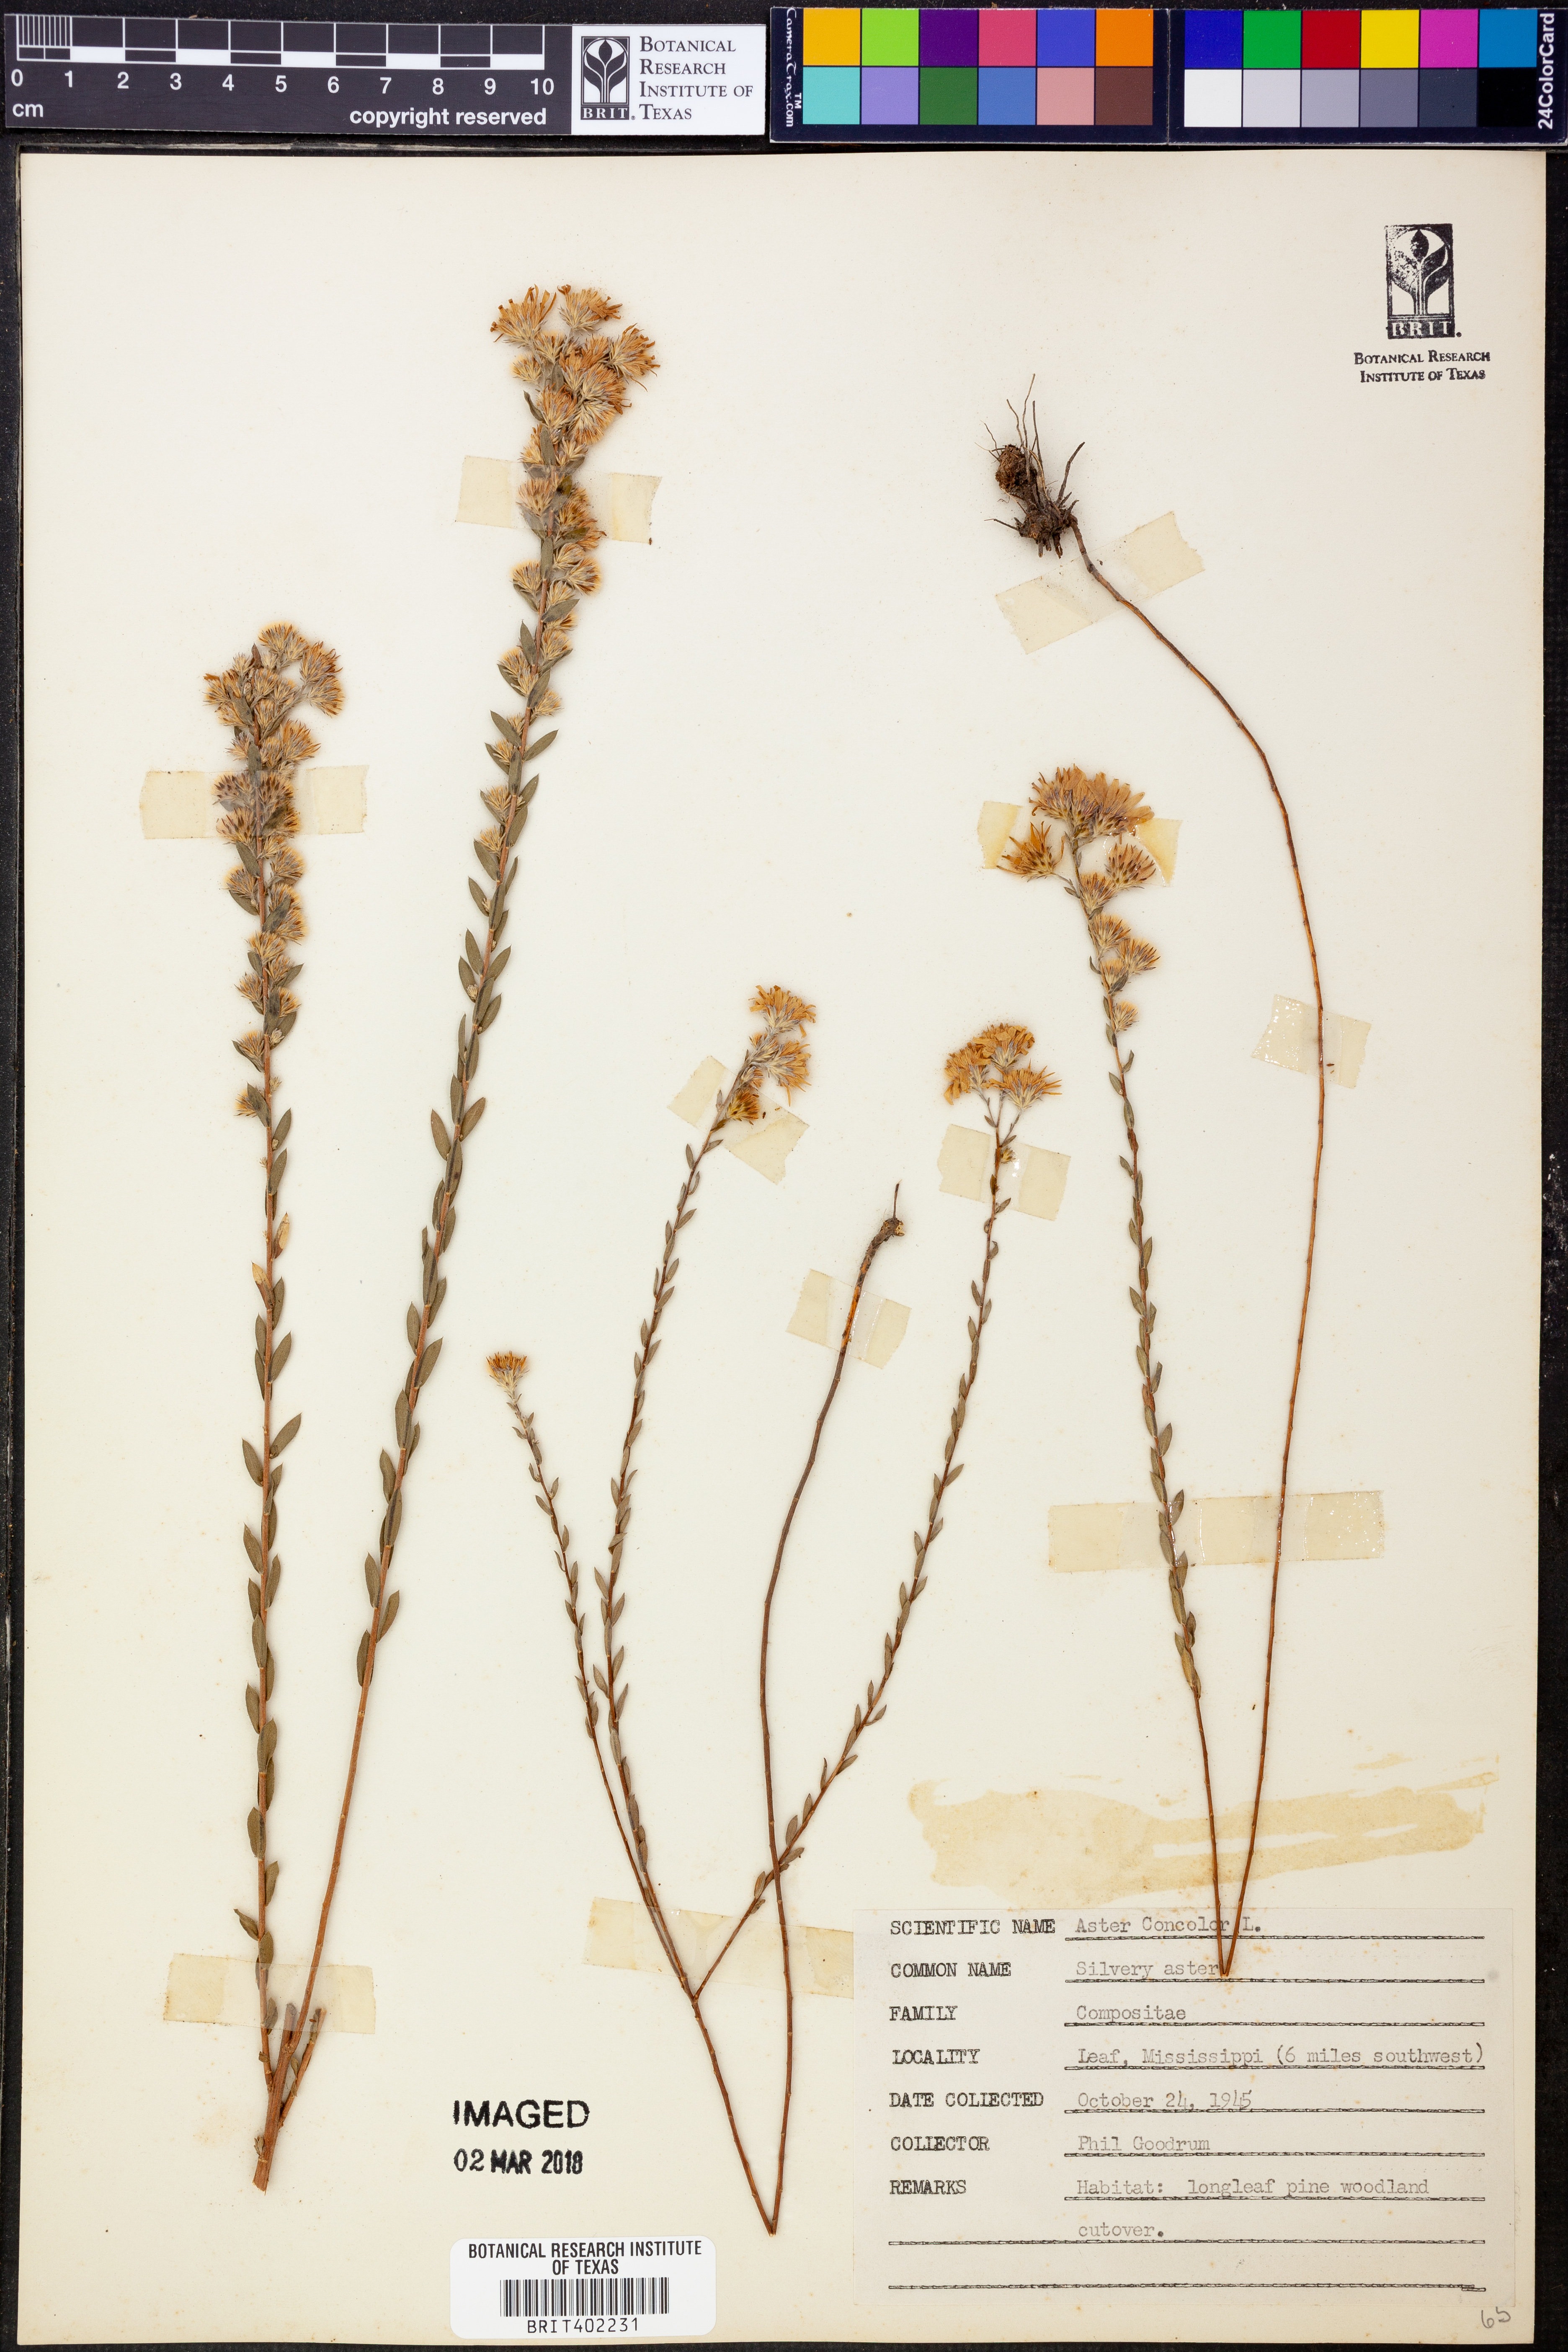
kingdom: Plantae
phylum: Tracheophyta
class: Magnoliopsida
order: Asterales
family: Asteraceae
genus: Symphyotrichum
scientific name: Symphyotrichum concolor
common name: Eastern silver aster
